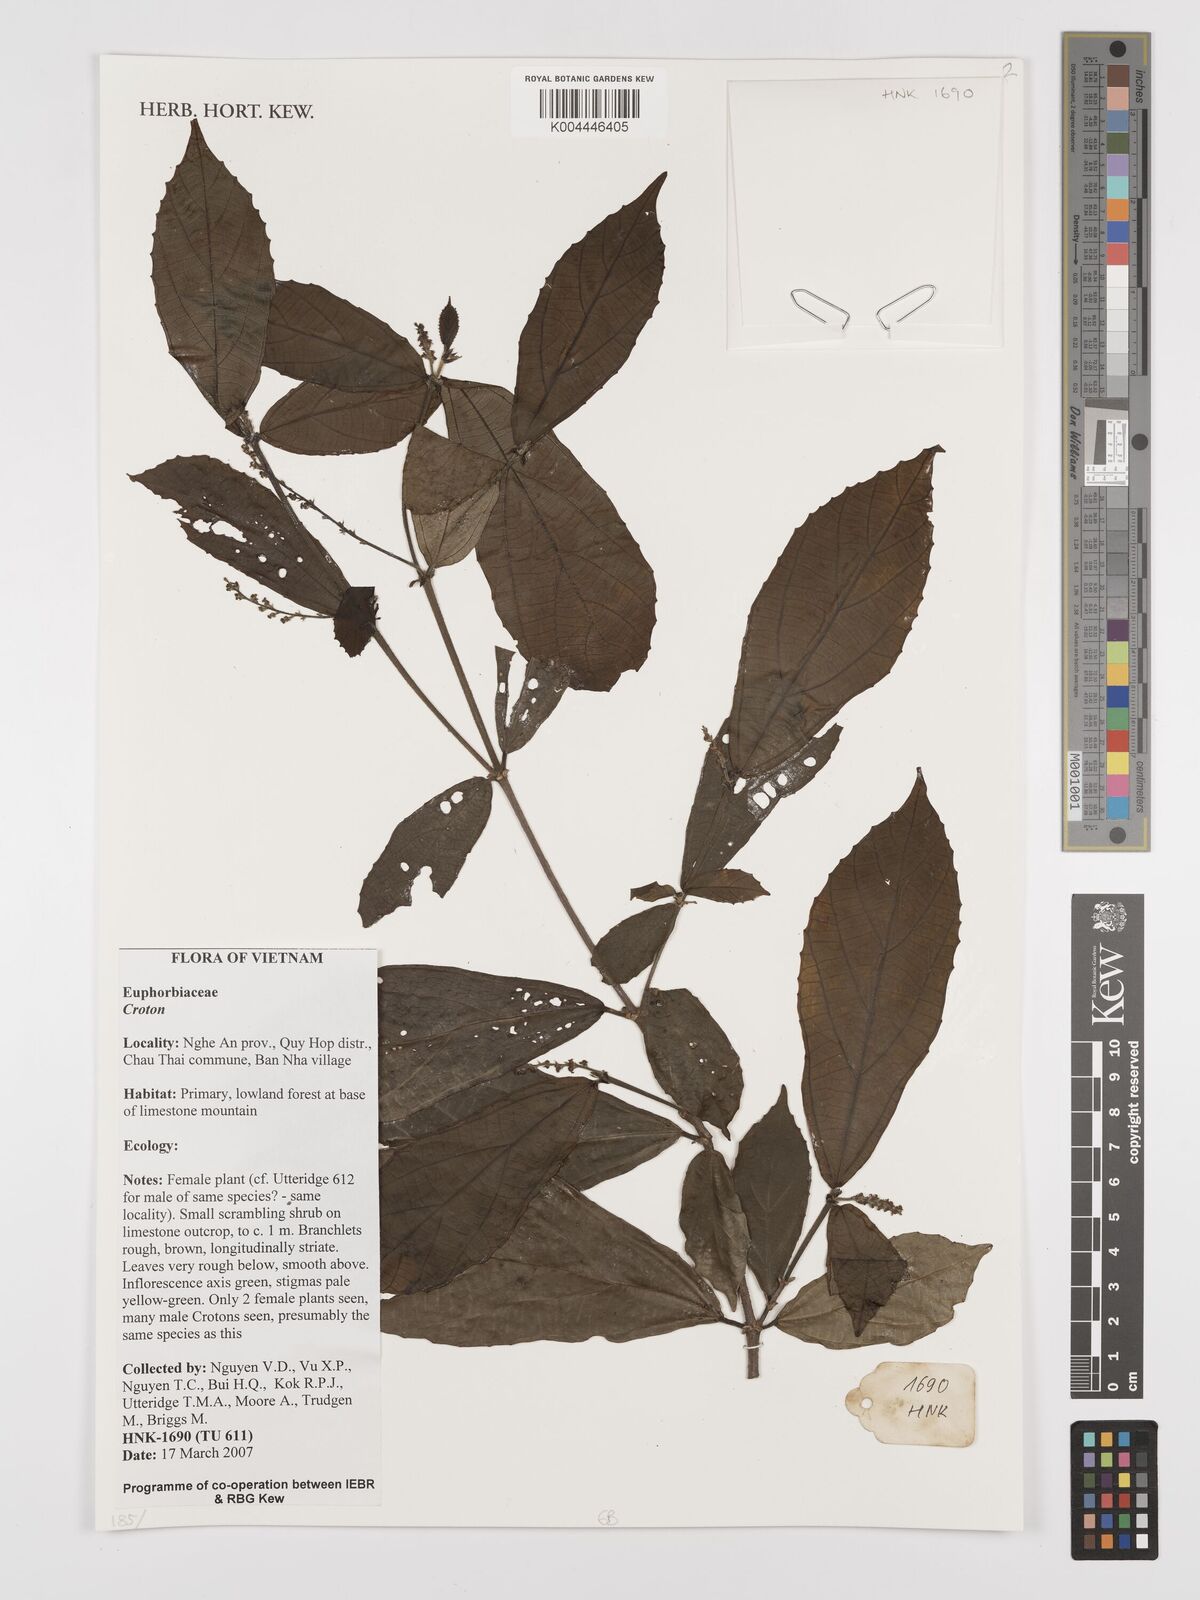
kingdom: Plantae
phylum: Tracheophyta
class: Magnoliopsida
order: Malpighiales
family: Euphorbiaceae
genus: Croton
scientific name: Croton
